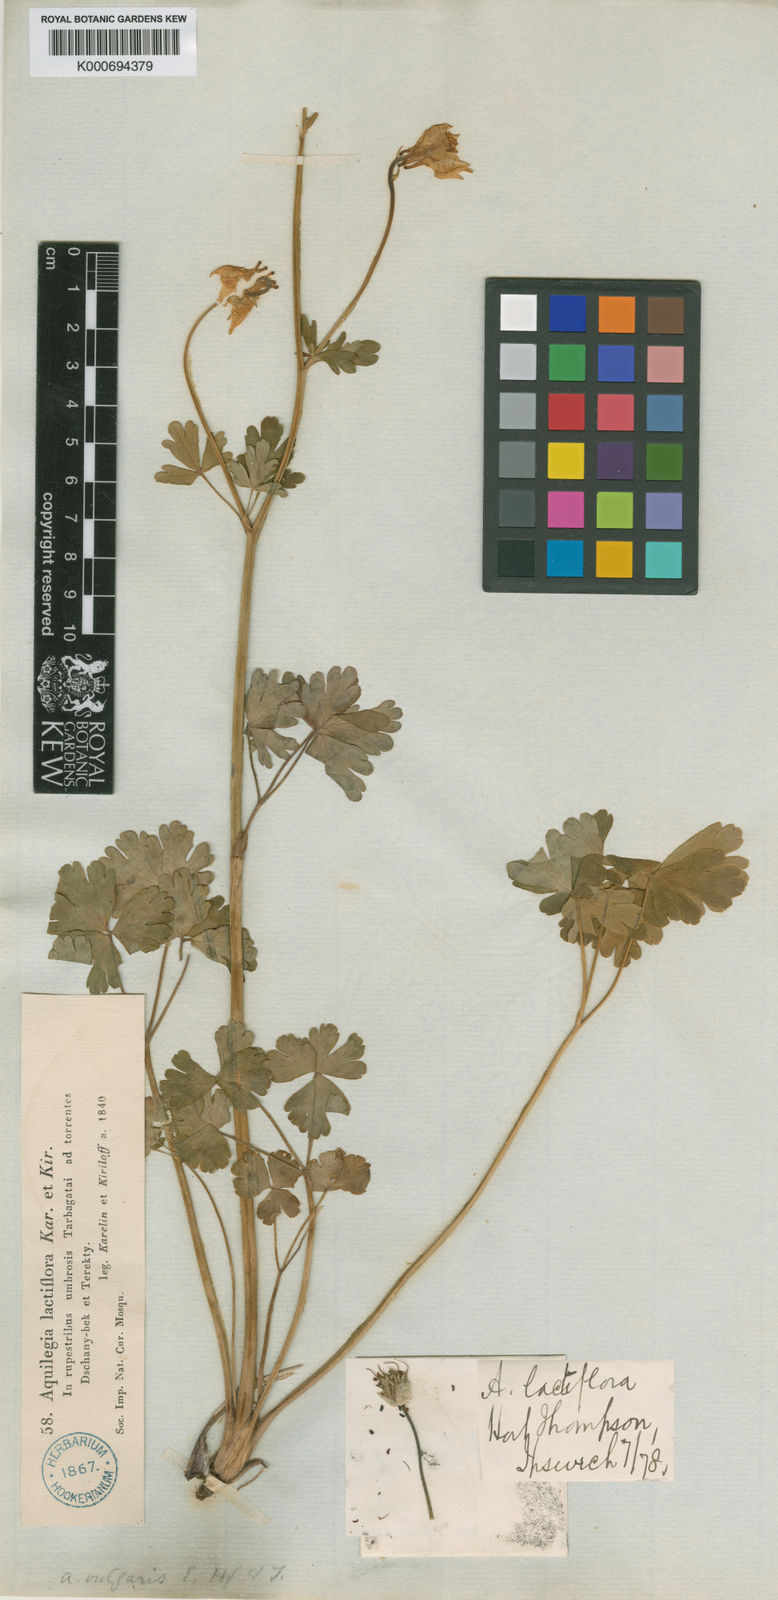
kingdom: Plantae
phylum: Tracheophyta
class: Magnoliopsida
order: Ranunculales
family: Ranunculaceae
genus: Aquilegia
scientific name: Aquilegia lactiflora
